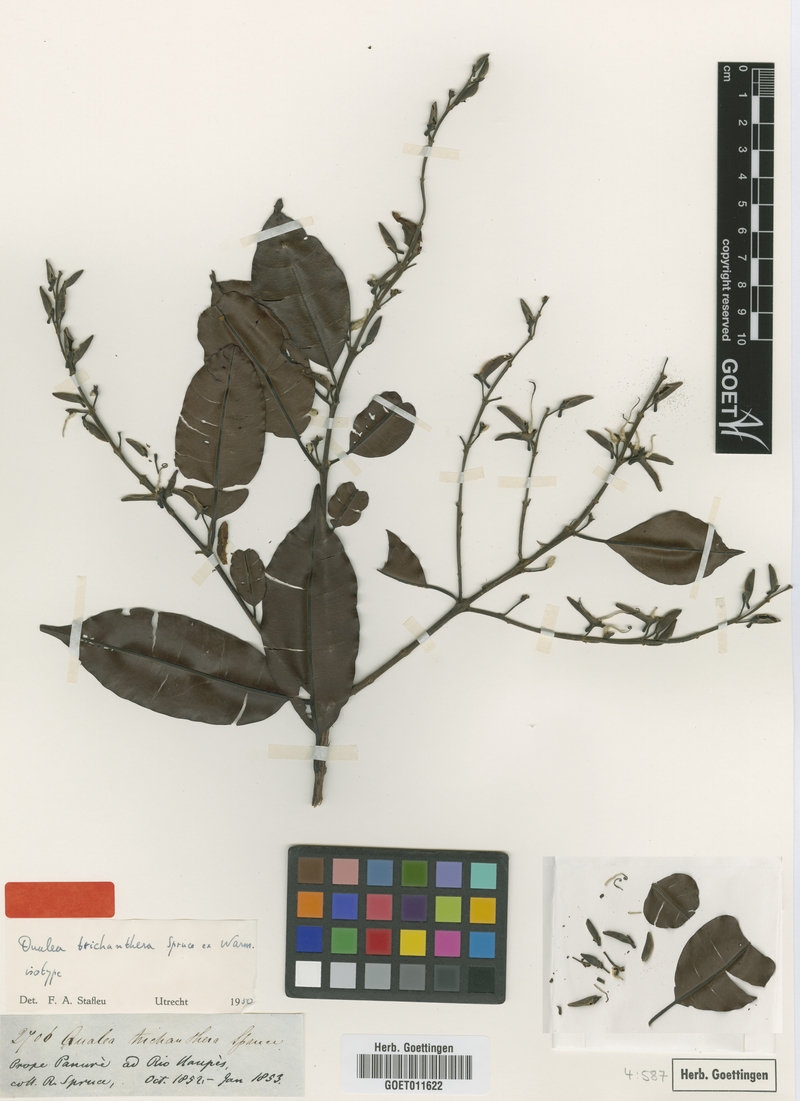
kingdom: Plantae
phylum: Tracheophyta
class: Magnoliopsida
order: Myrtales
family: Vochysiaceae
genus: Ruizterania
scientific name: Ruizterania trichanthera
